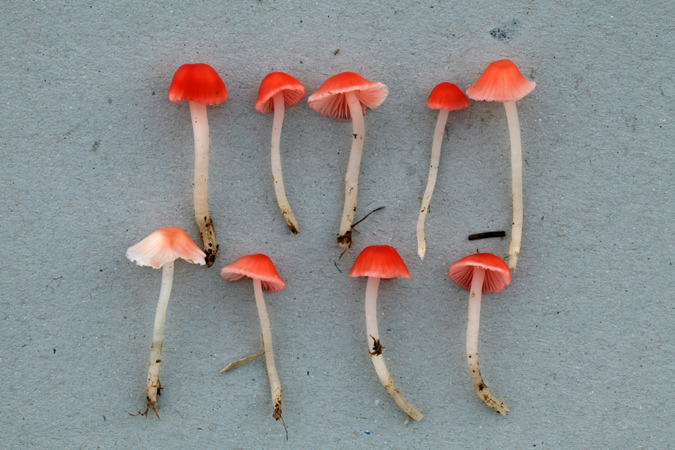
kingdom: Fungi
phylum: Basidiomycota
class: Agaricomycetes
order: Agaricales
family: Mycenaceae
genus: Atheniella
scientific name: Atheniella adonis
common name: rønnerød huesvamp
